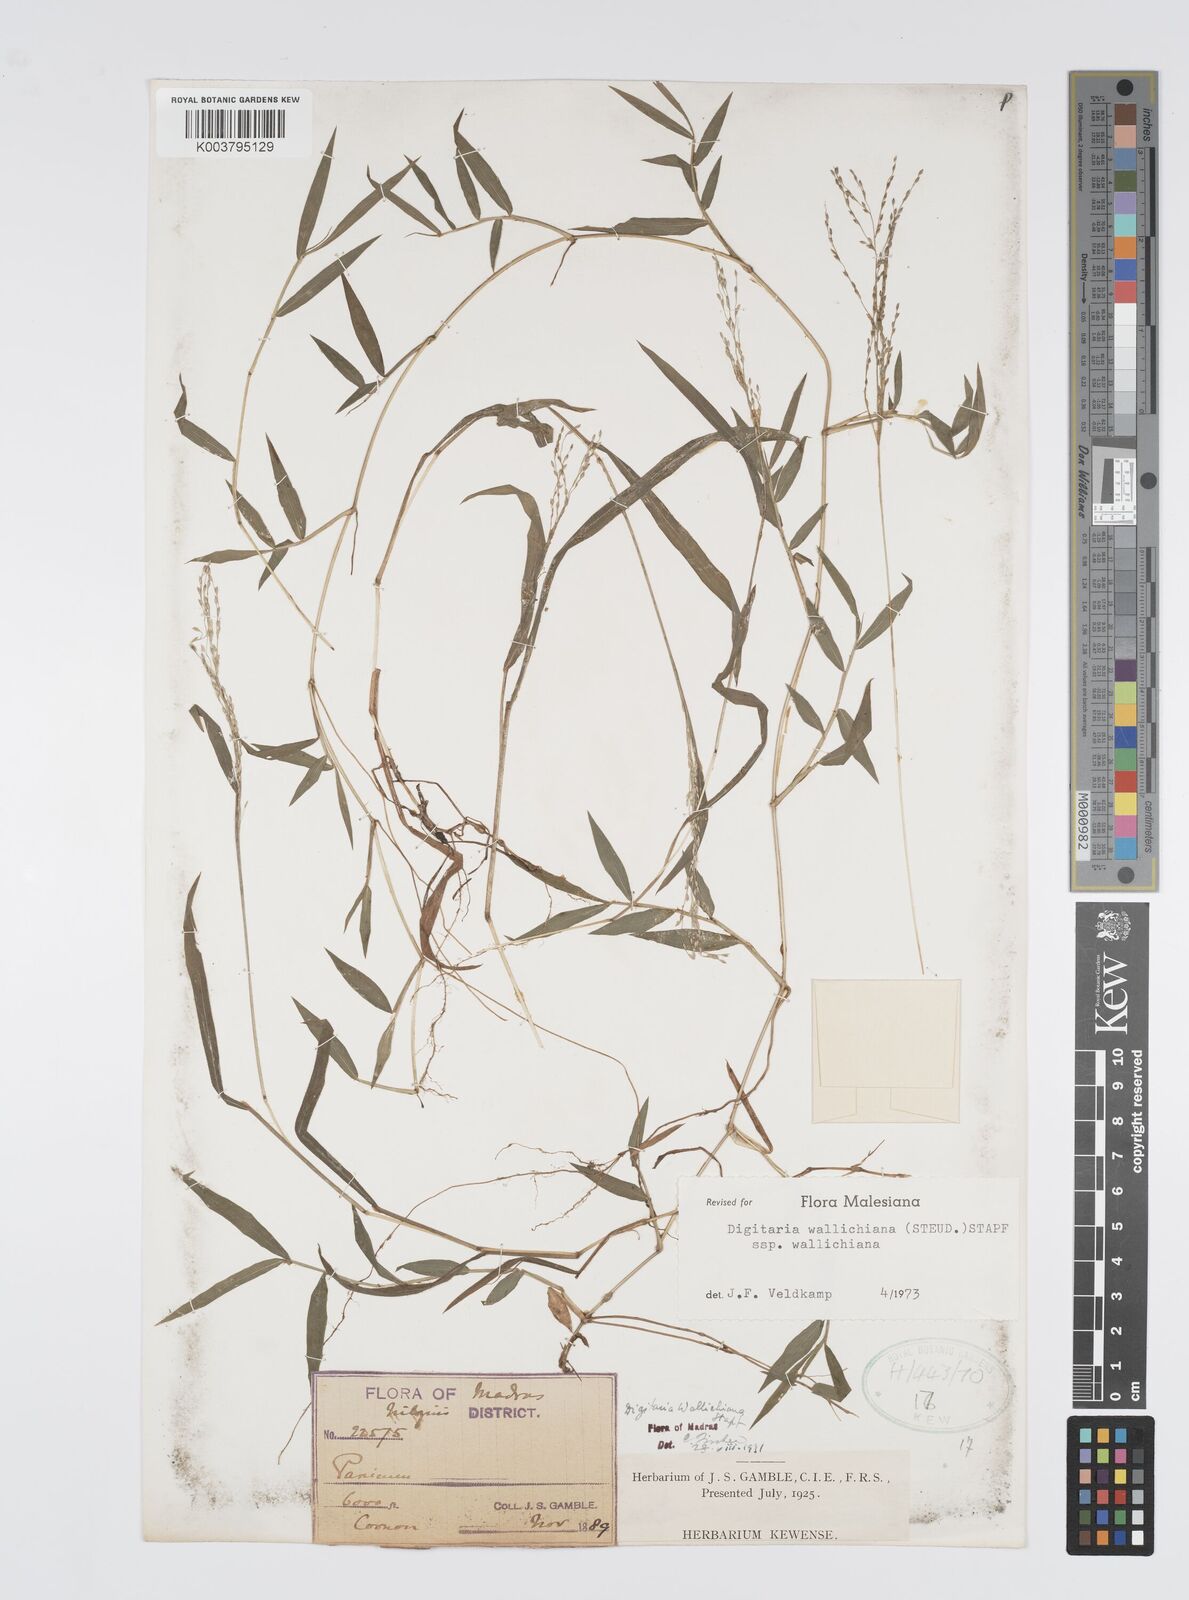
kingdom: Plantae
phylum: Tracheophyta
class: Liliopsida
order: Poales
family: Poaceae
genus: Digitaria
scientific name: Digitaria wallichiana
